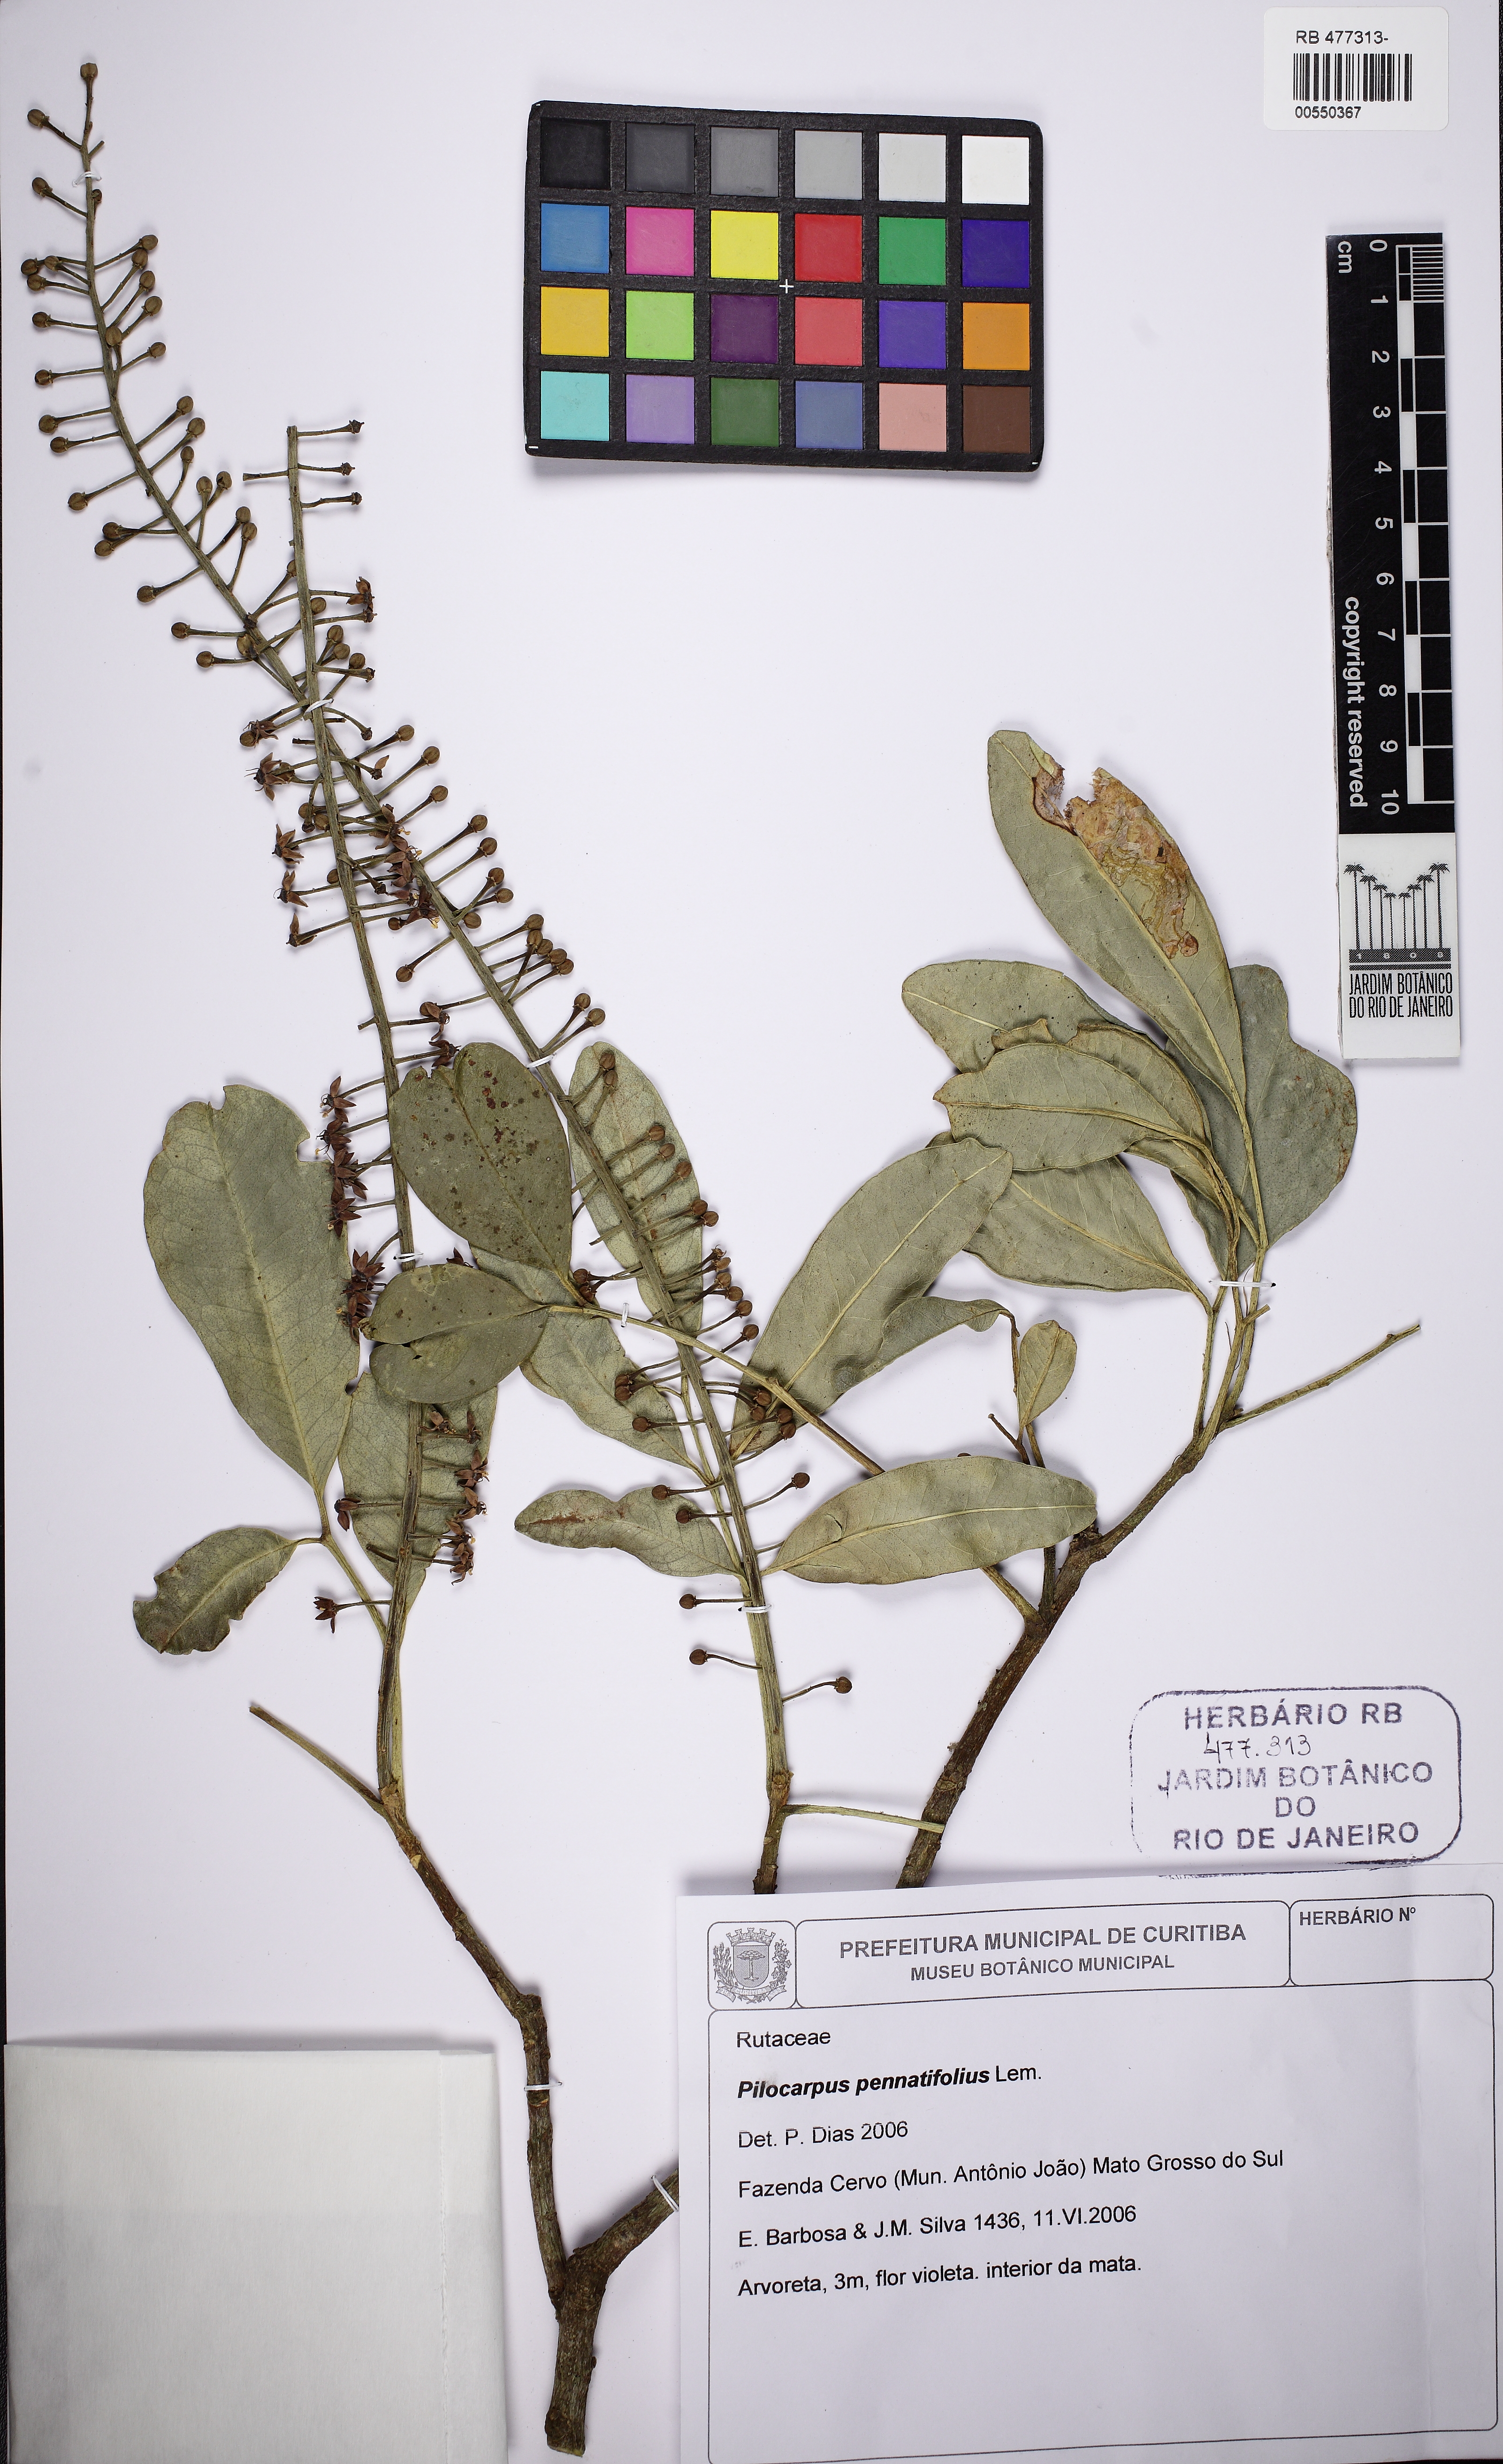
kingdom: Plantae
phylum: Tracheophyta
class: Magnoliopsida
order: Sapindales
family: Rutaceae
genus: Pilocarpus
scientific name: Pilocarpus pennatifolius
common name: Paraguay jaborandi
